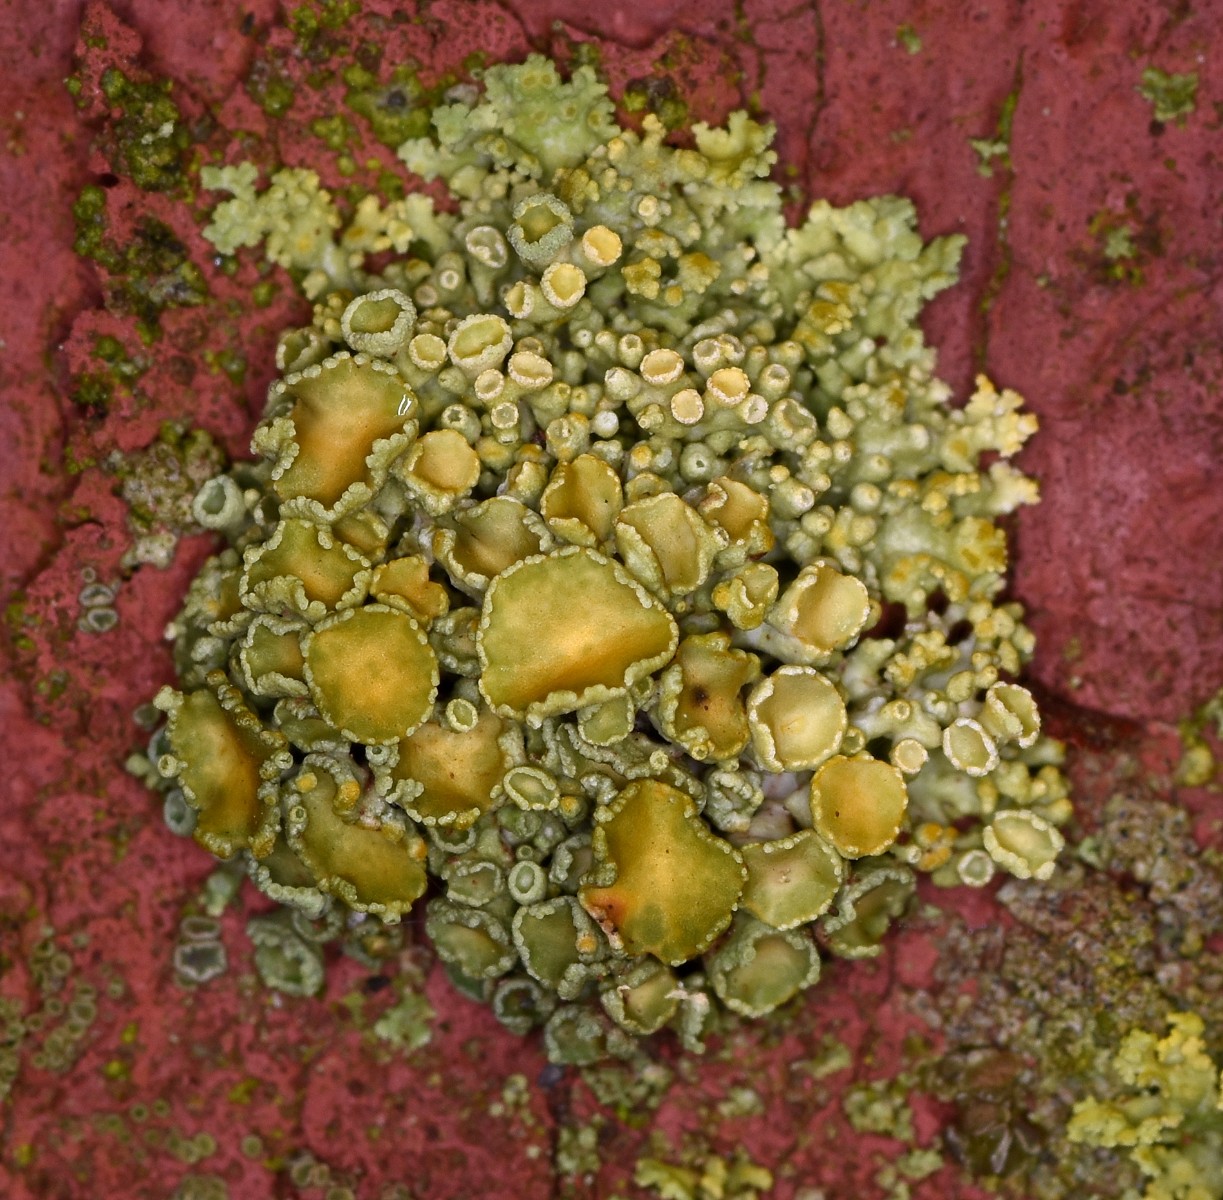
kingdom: Fungi
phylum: Ascomycota
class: Lecanoromycetes
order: Teloschistales
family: Teloschistaceae
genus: Polycauliona
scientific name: Polycauliona polycarpa
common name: mangefrugtet orangelav
